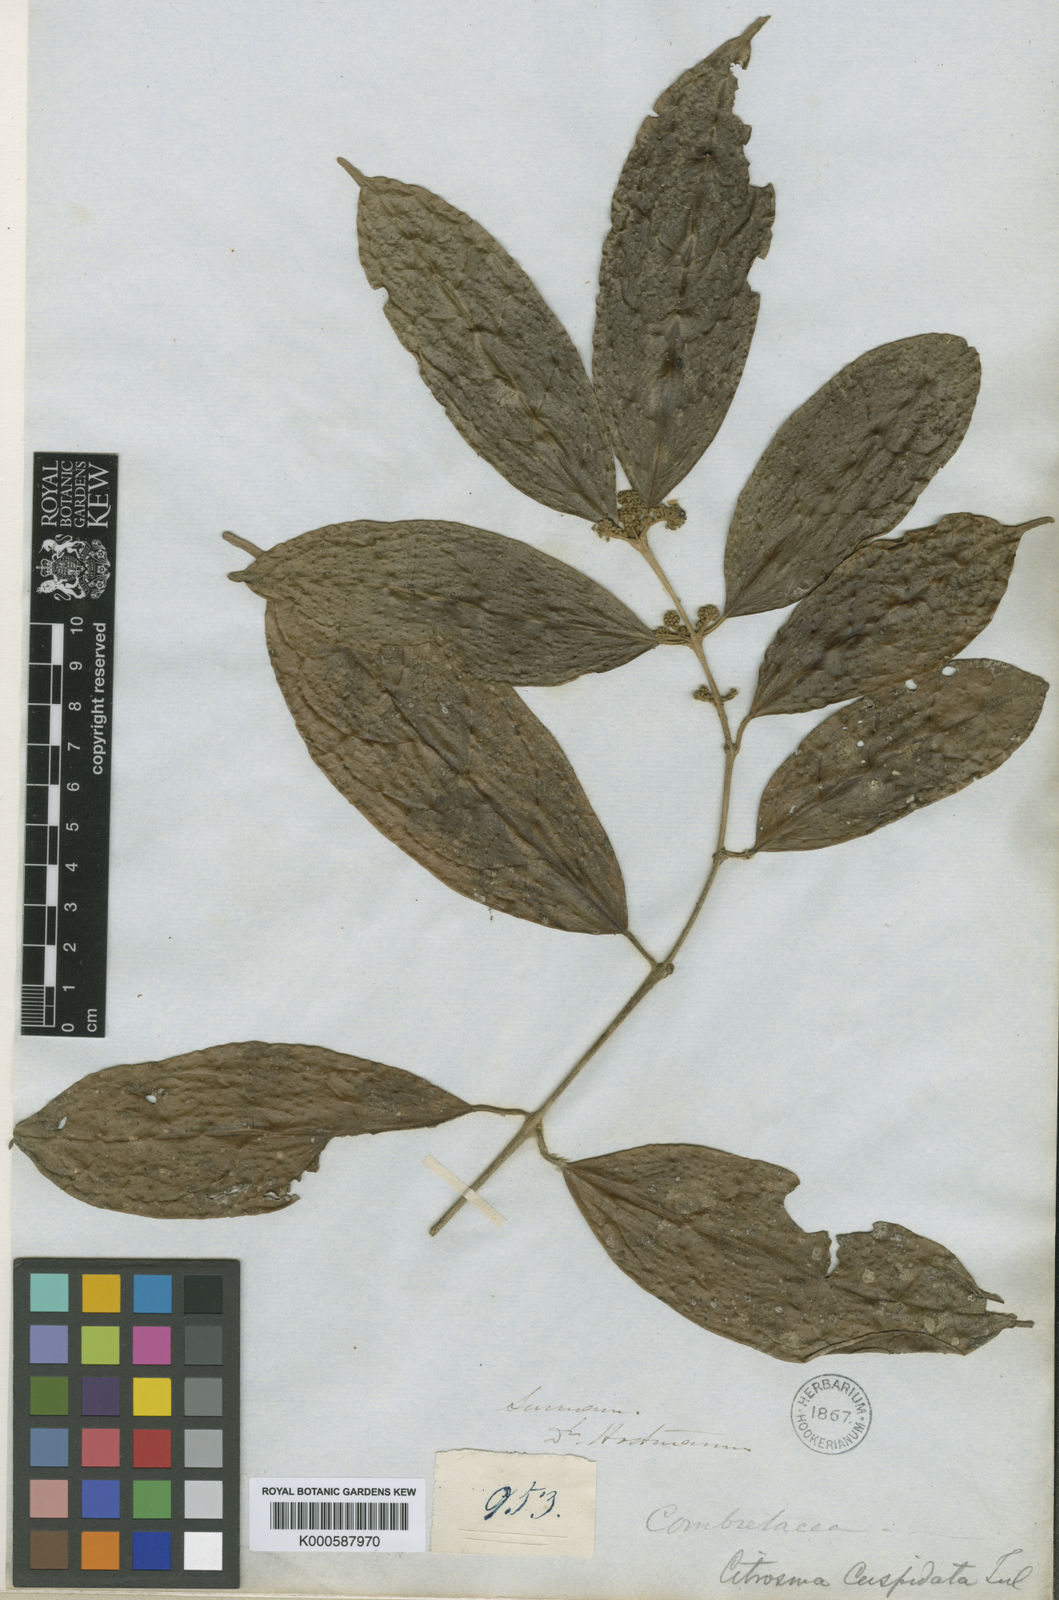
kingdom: Plantae
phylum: Tracheophyta
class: Magnoliopsida
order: Laurales
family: Siparunaceae
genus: Siparuna
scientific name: Siparuna cuspidata
